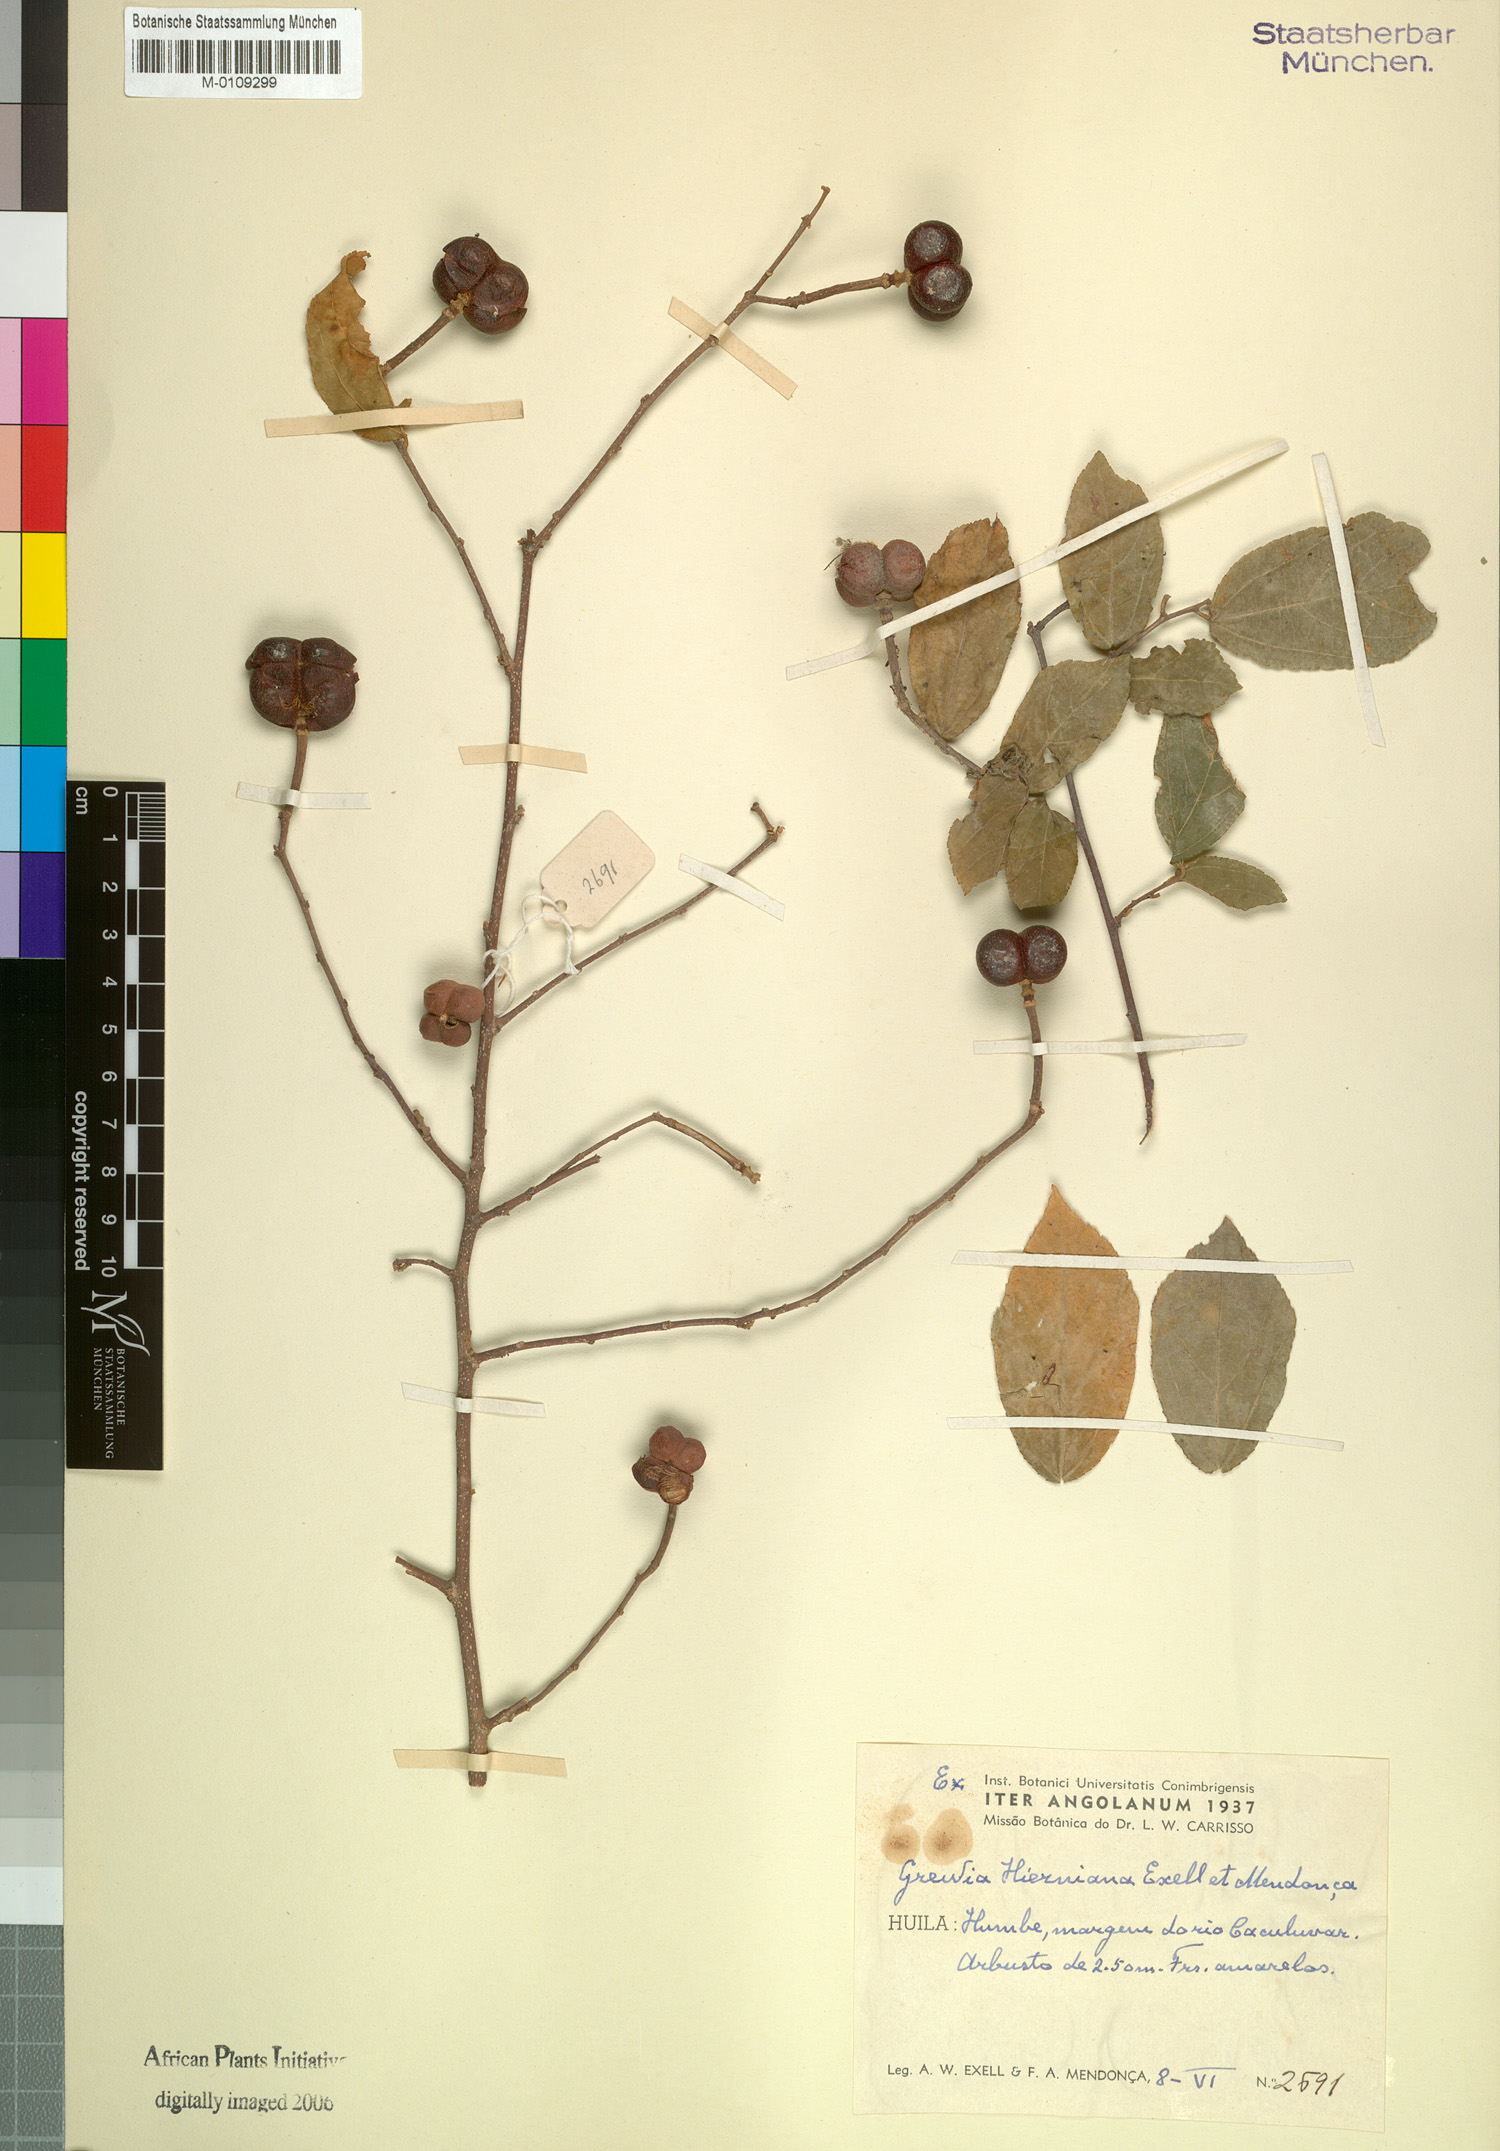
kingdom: Plantae
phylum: Tracheophyta
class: Magnoliopsida
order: Malvales
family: Malvaceae
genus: Grewia
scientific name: Grewia hierniana
